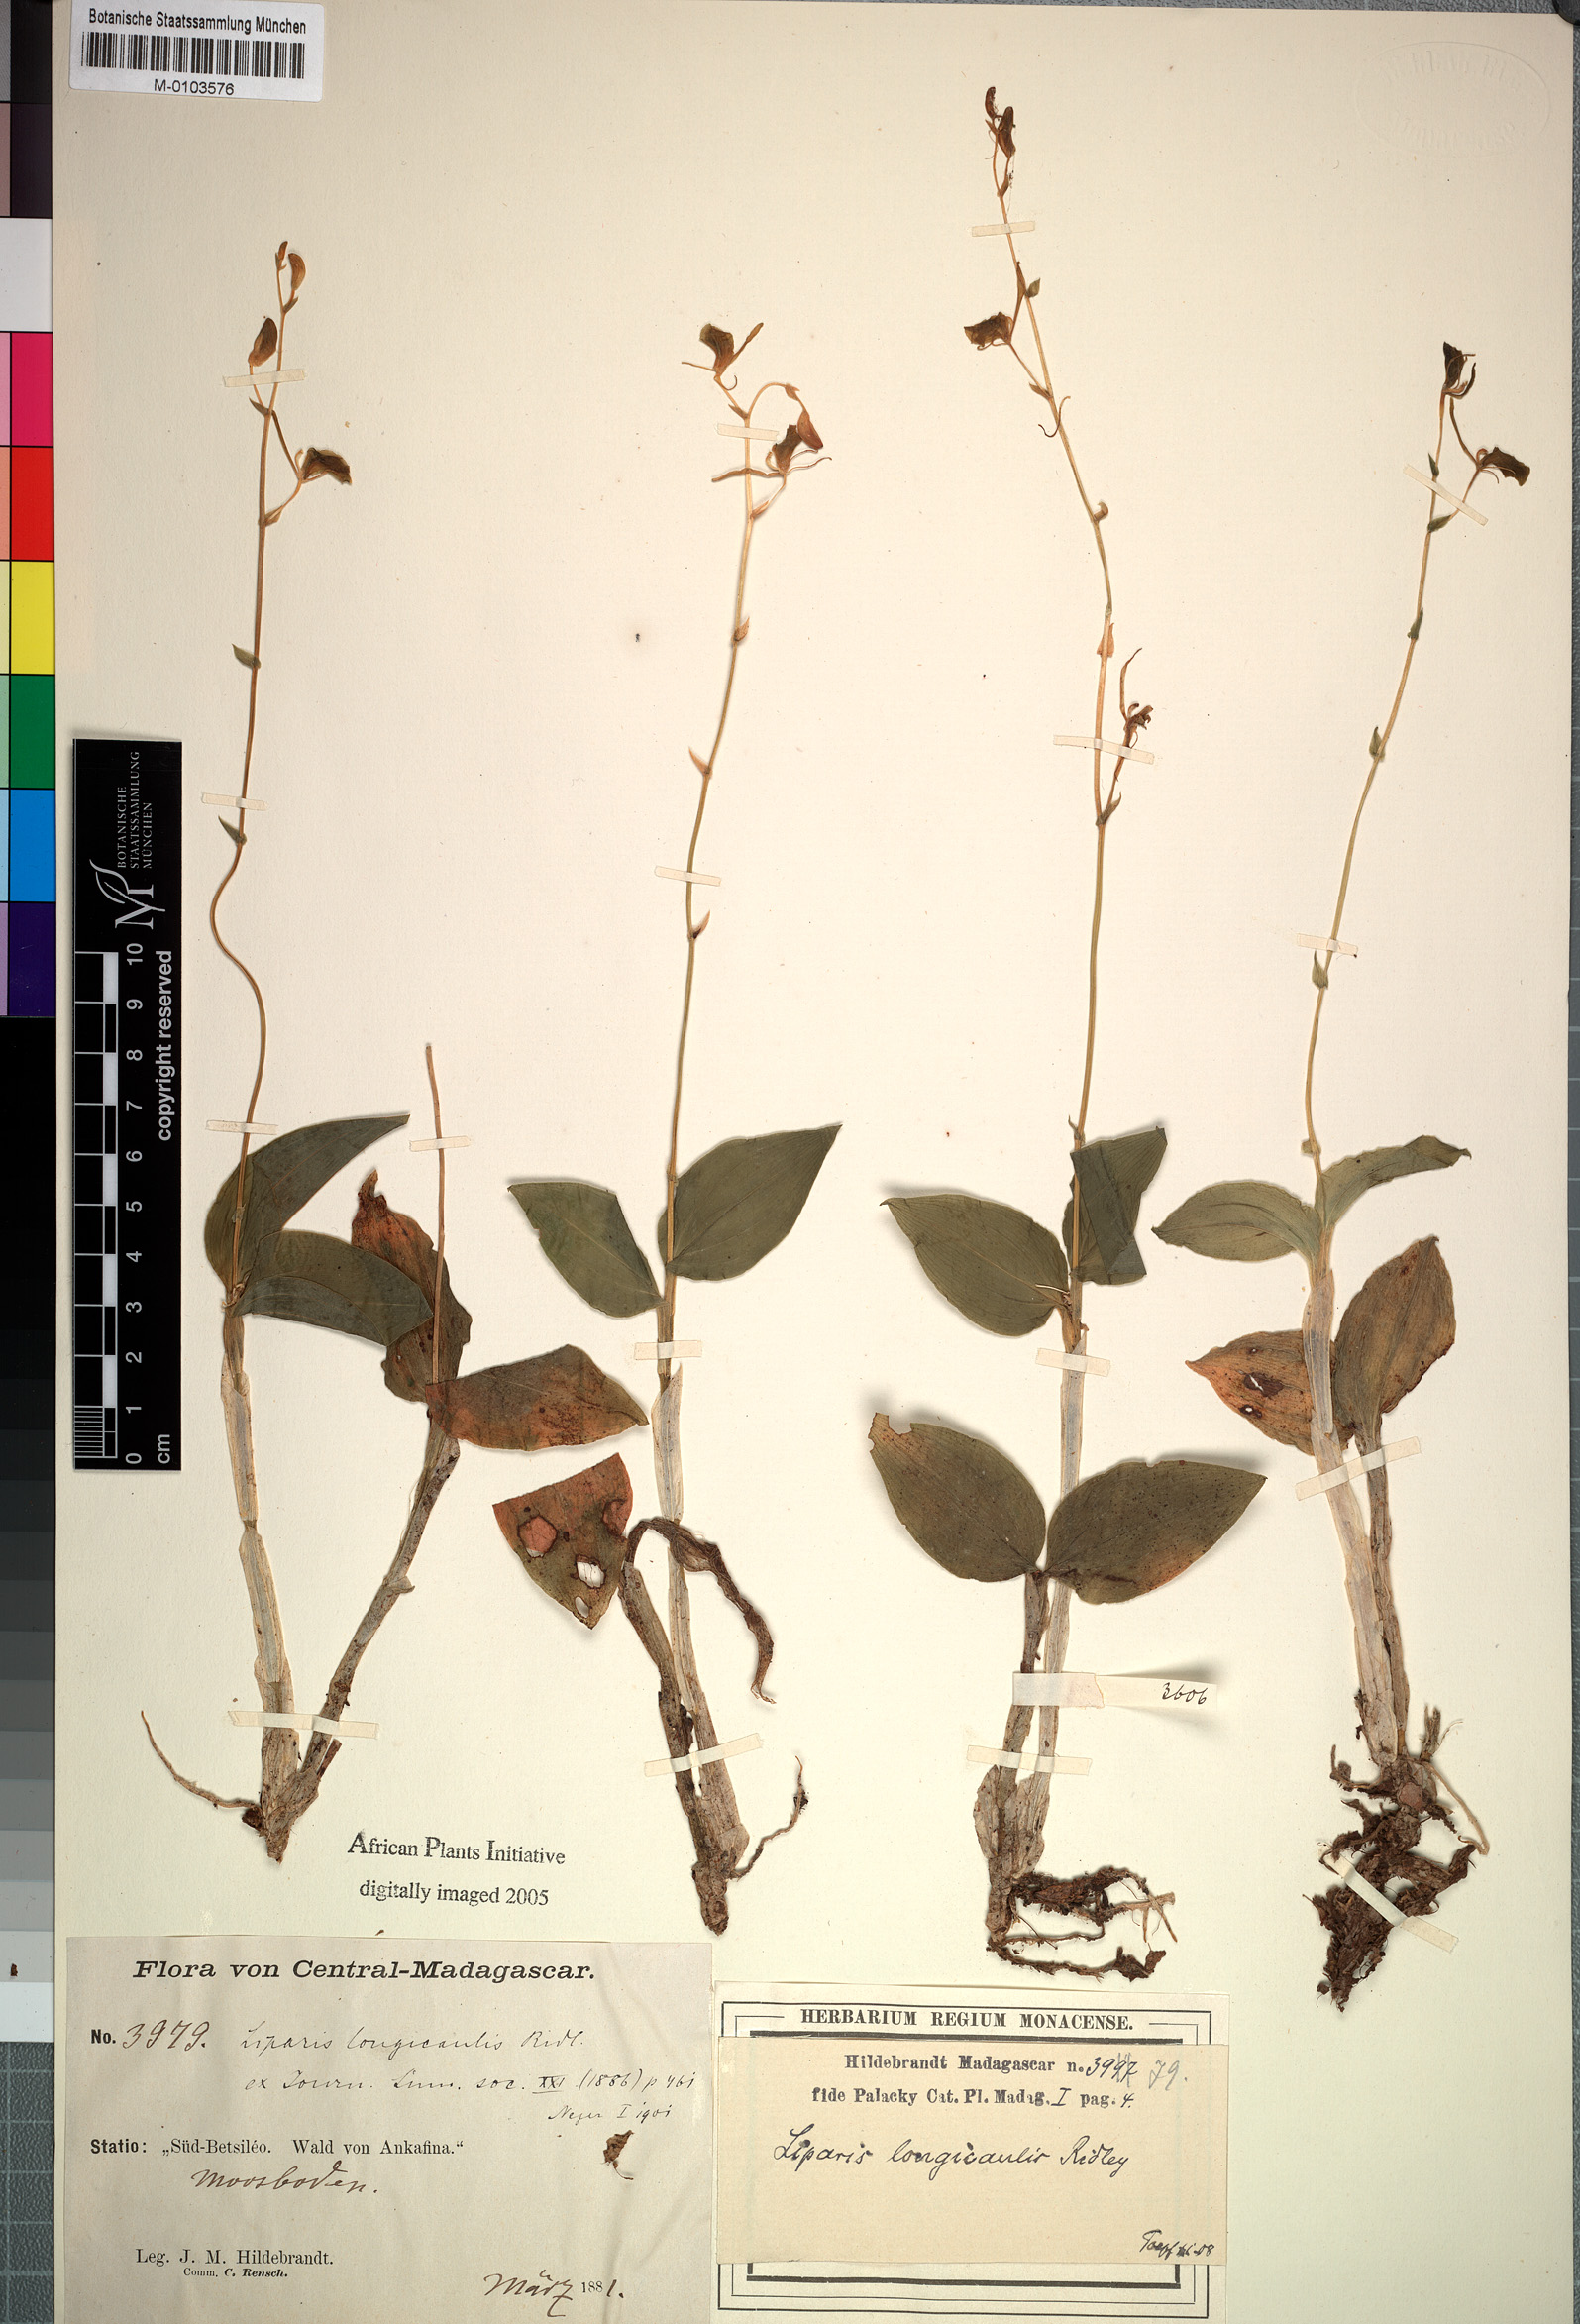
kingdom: Plantae
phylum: Tracheophyta
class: Liliopsida
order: Asparagales
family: Orchidaceae
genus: Liparis
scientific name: Liparis longicaulis
